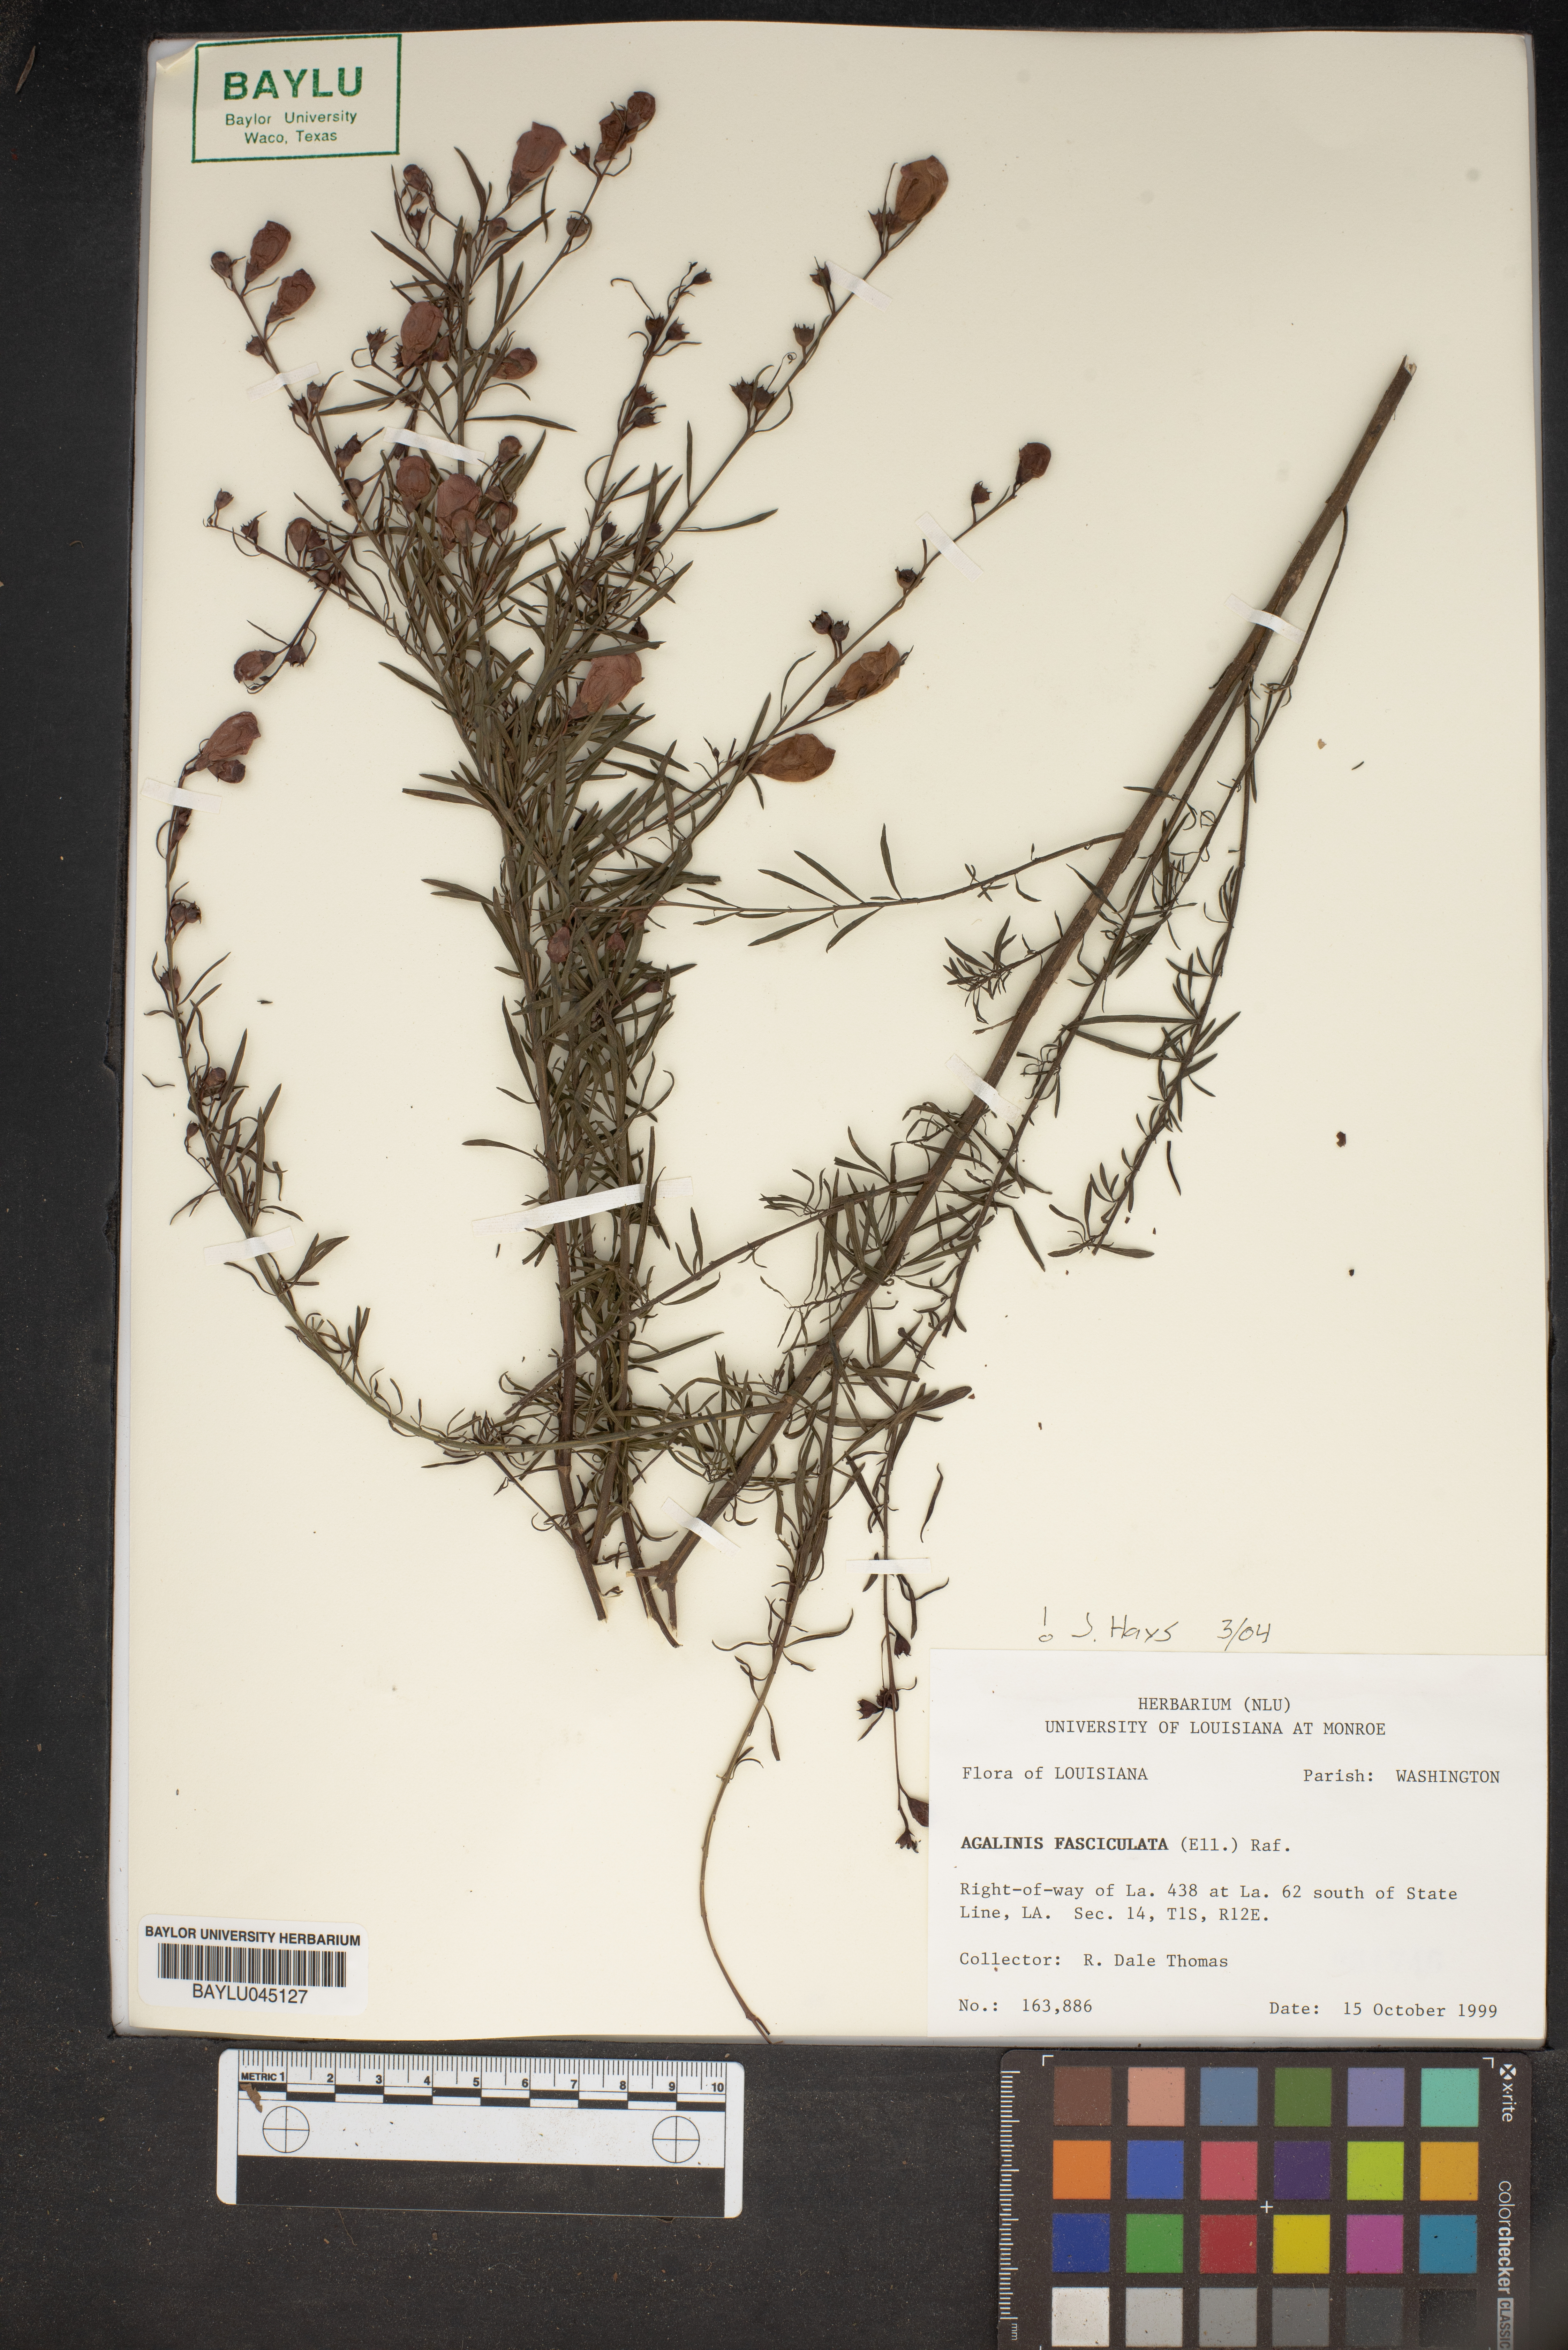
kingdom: Plantae
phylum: Tracheophyta
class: Magnoliopsida
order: Lamiales
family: Orobanchaceae
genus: Agalinis
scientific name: Agalinis fasciculata
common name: Beach false foxglove
